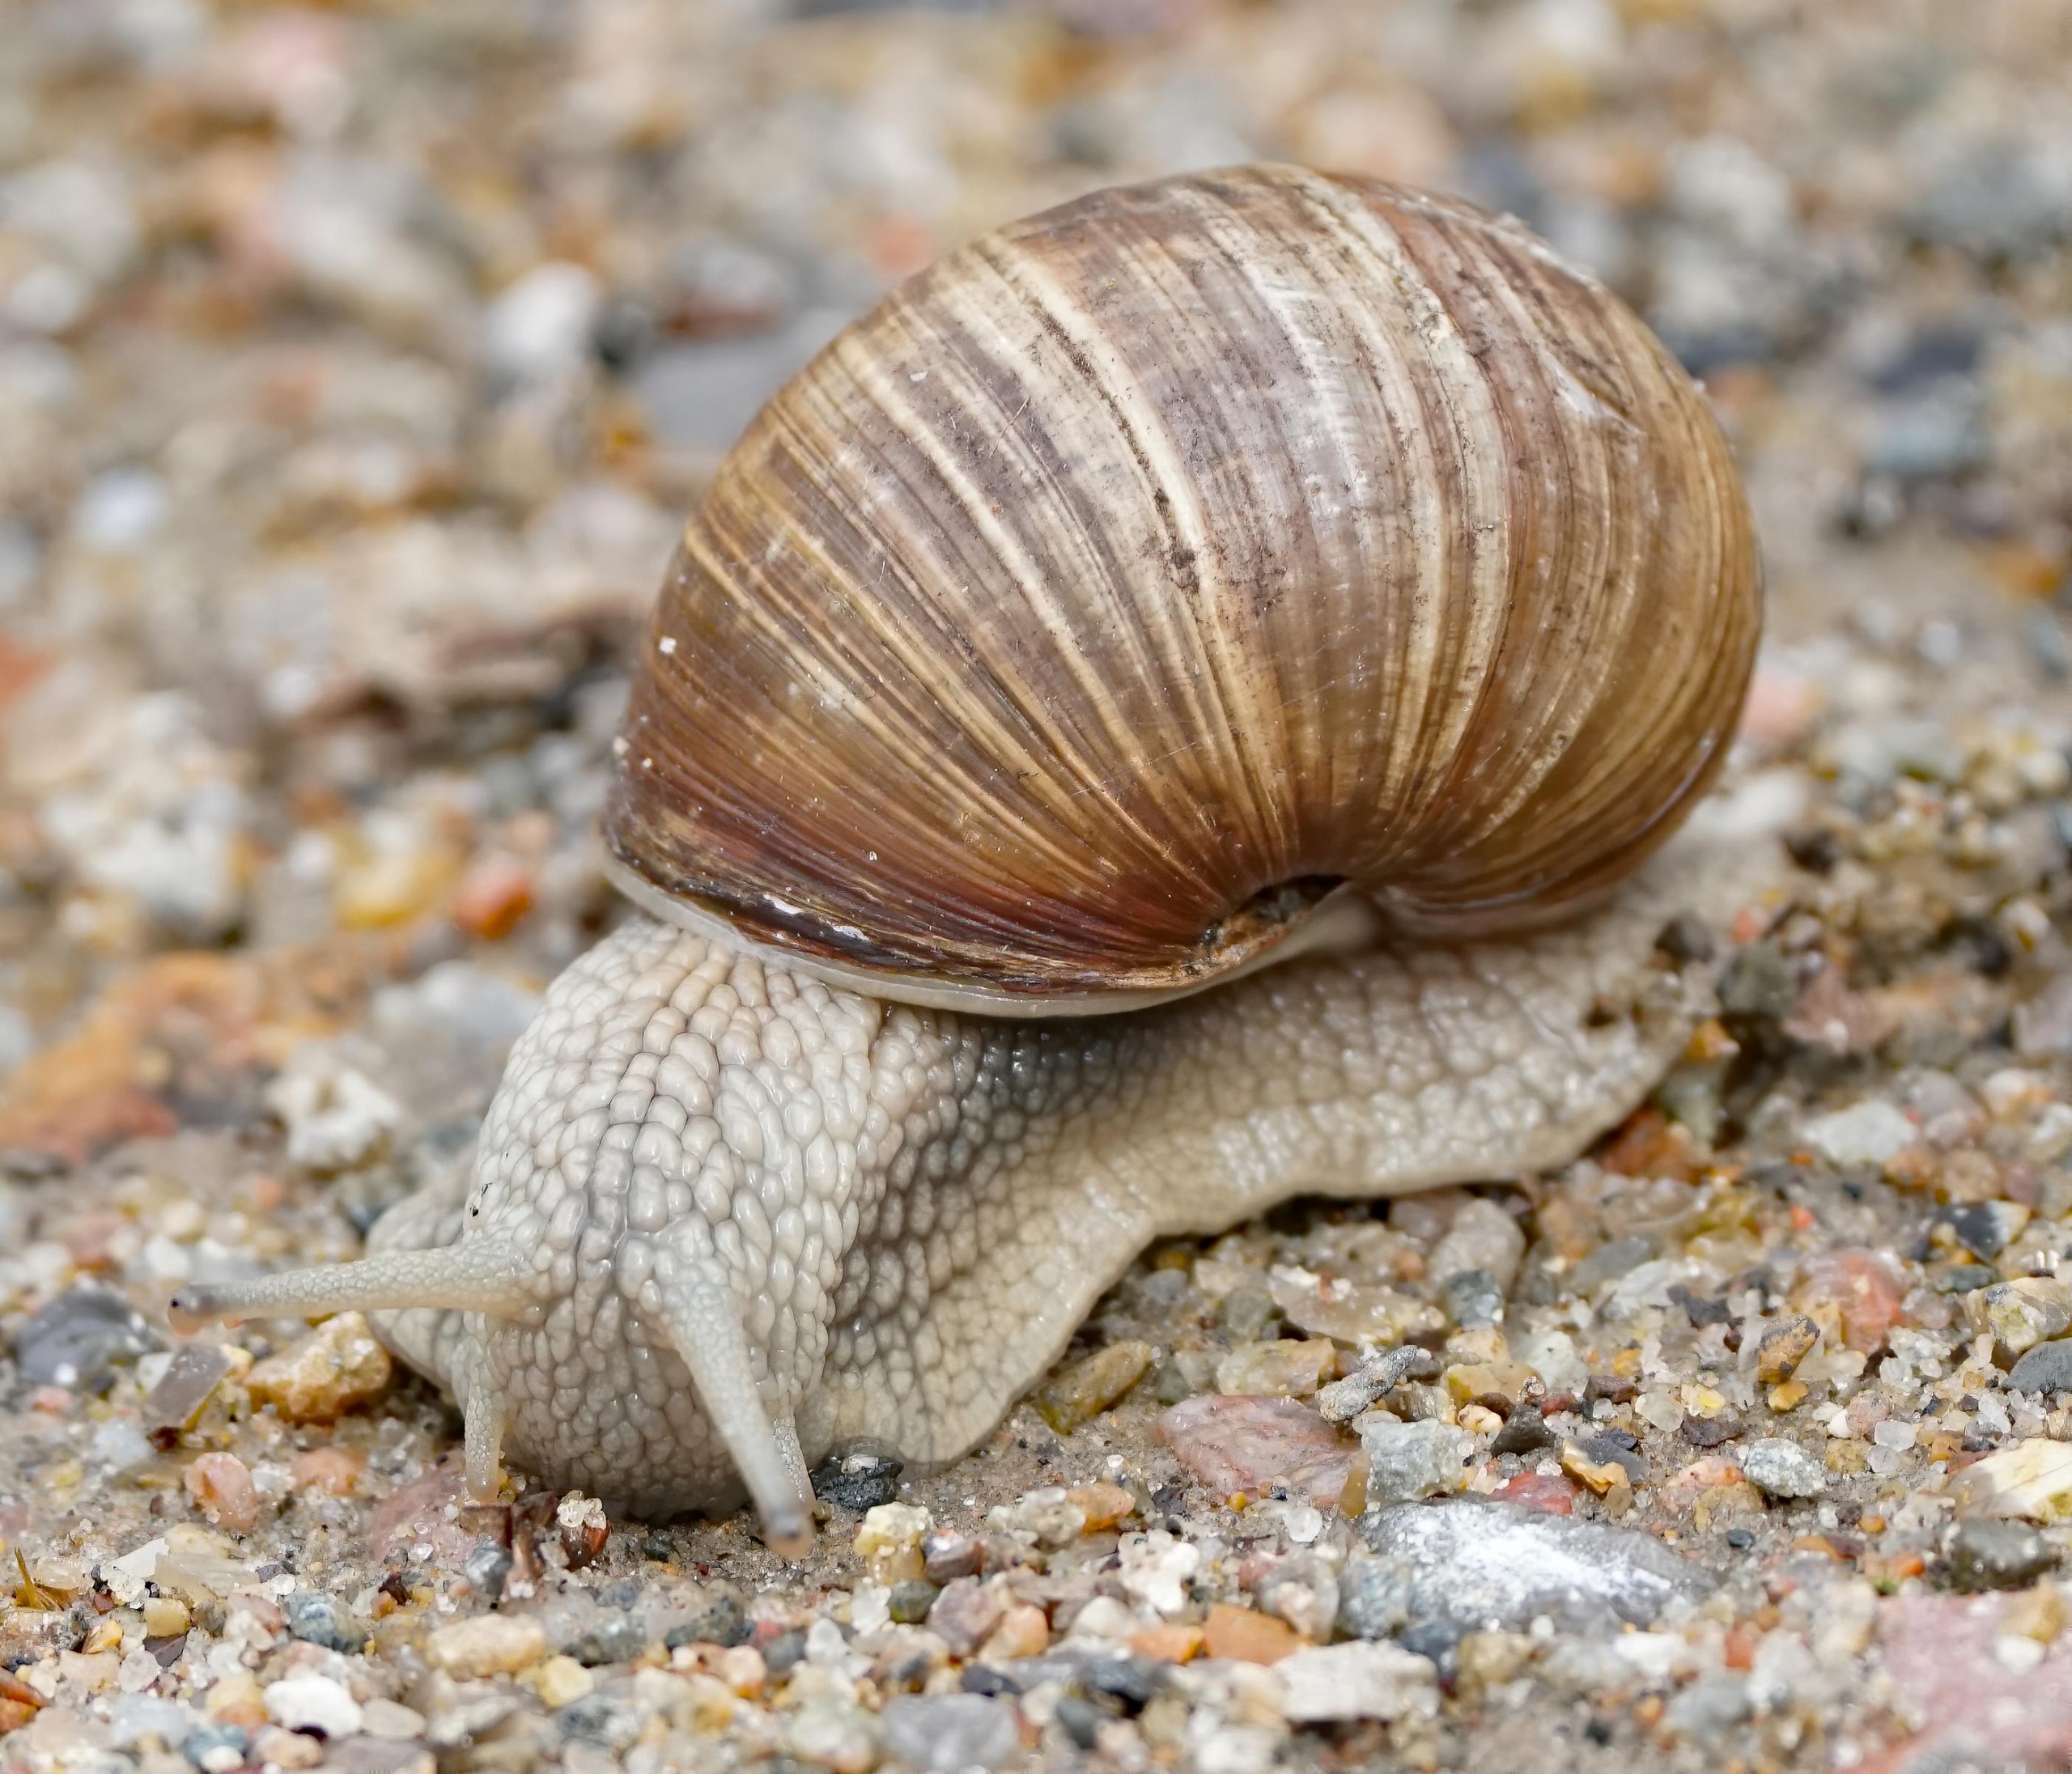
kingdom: Animalia
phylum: Mollusca
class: Gastropoda
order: Stylommatophora
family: Helicidae
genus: Helix
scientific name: Helix pomatia
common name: Vinbjergsnegl
